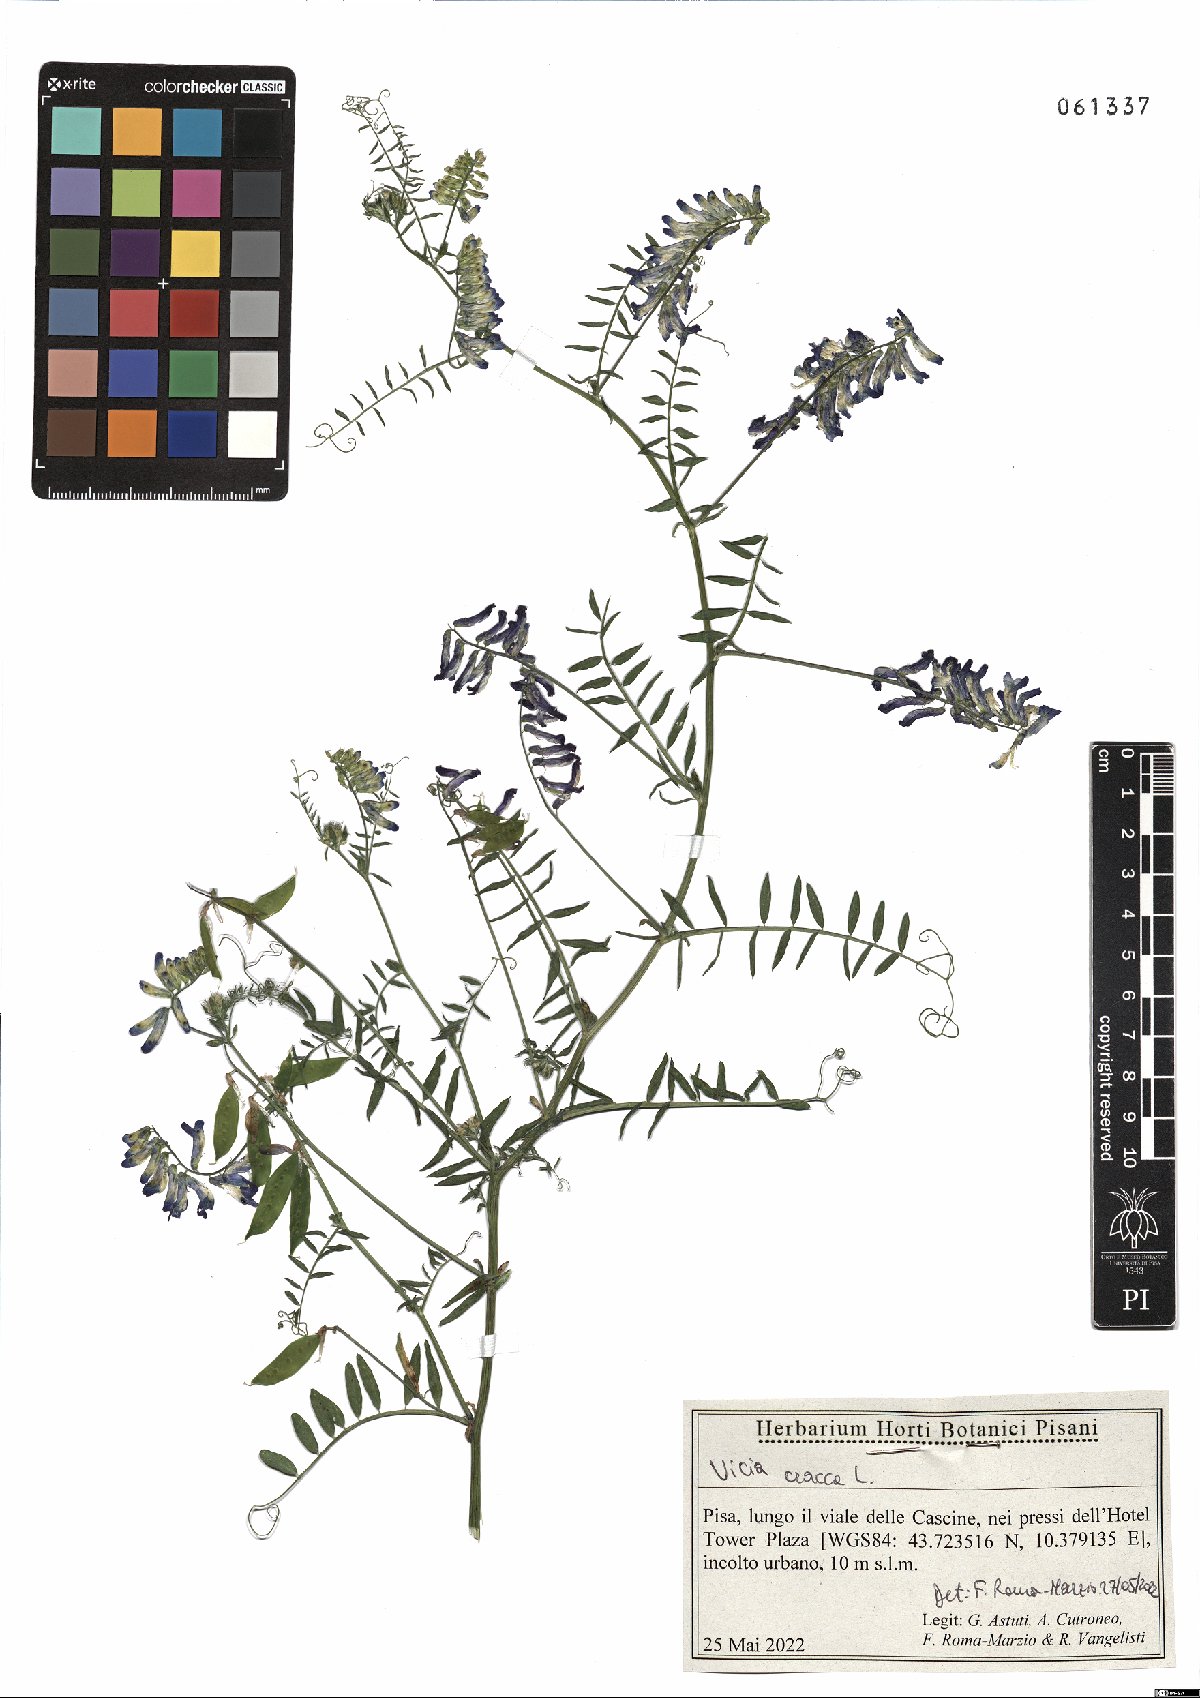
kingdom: Plantae
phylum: Tracheophyta
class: Magnoliopsida
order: Fabales
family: Fabaceae
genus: Vicia
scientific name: Vicia cracca
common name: Bird vetch
